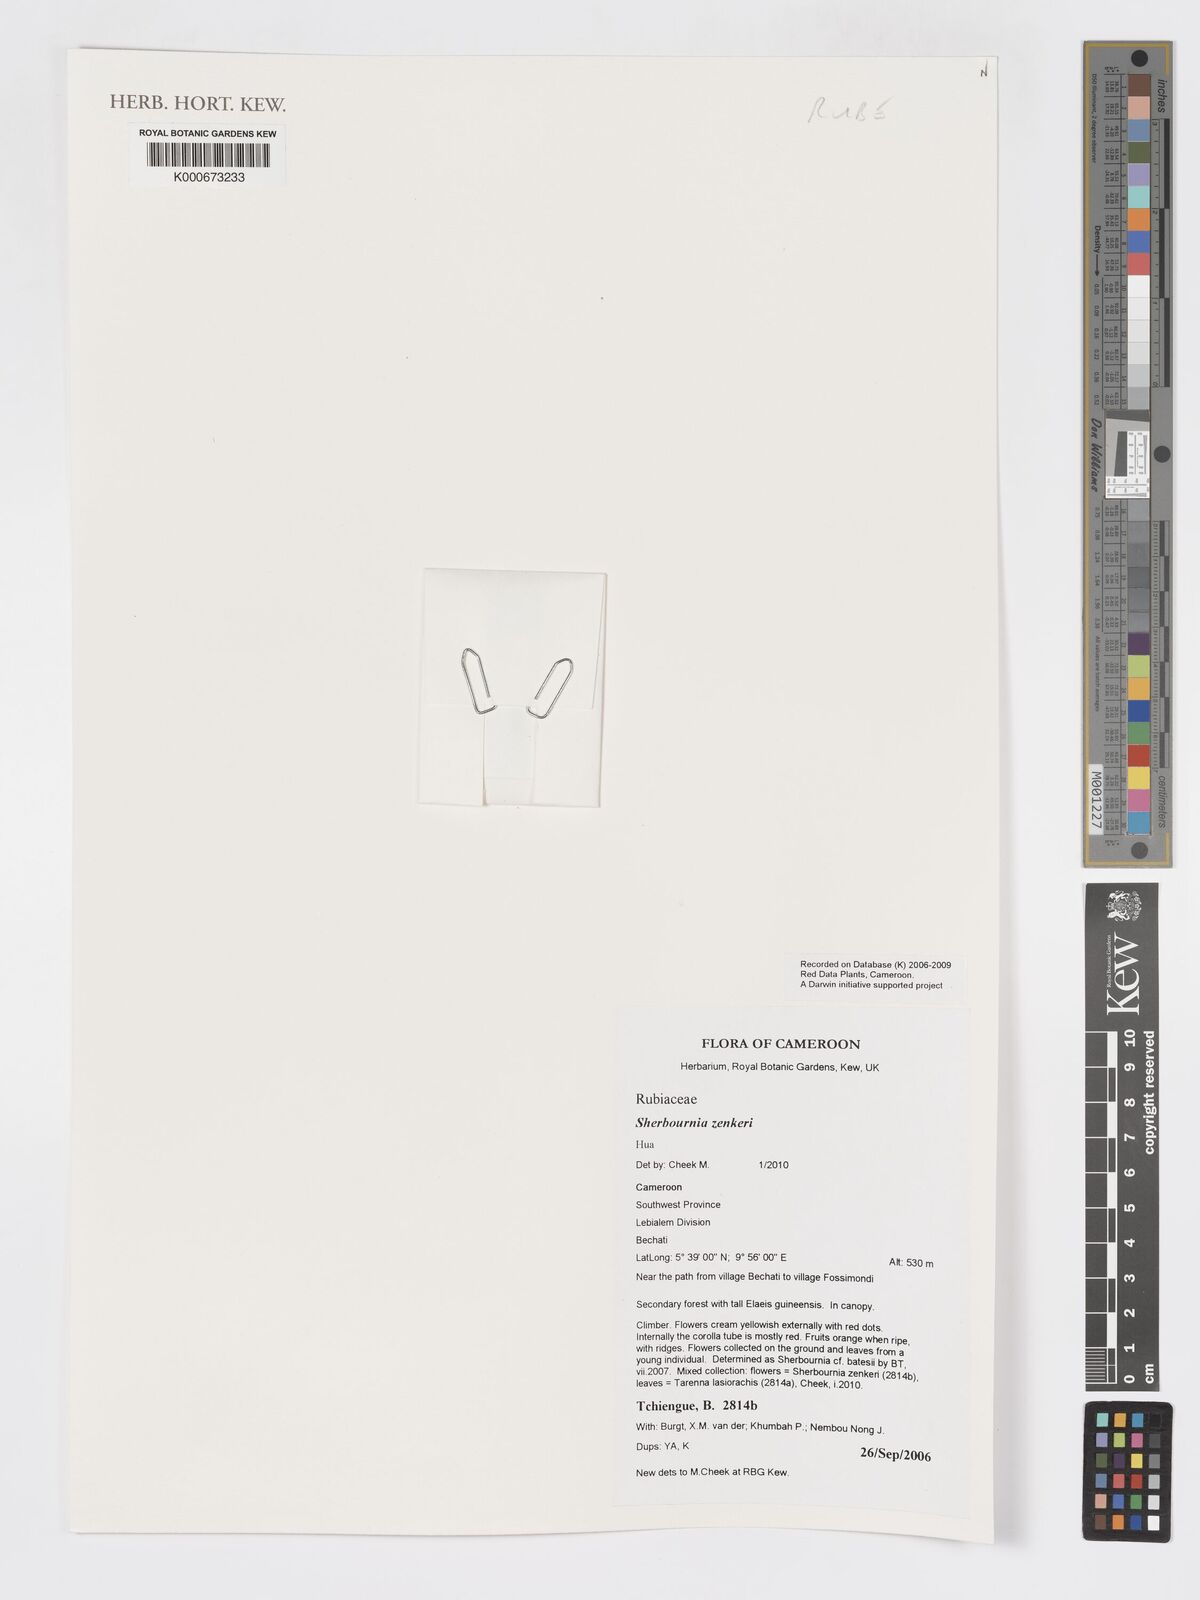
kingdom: Plantae
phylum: Tracheophyta
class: Magnoliopsida
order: Gentianales
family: Rubiaceae
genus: Sherbournia
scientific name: Sherbournia zenkeri
